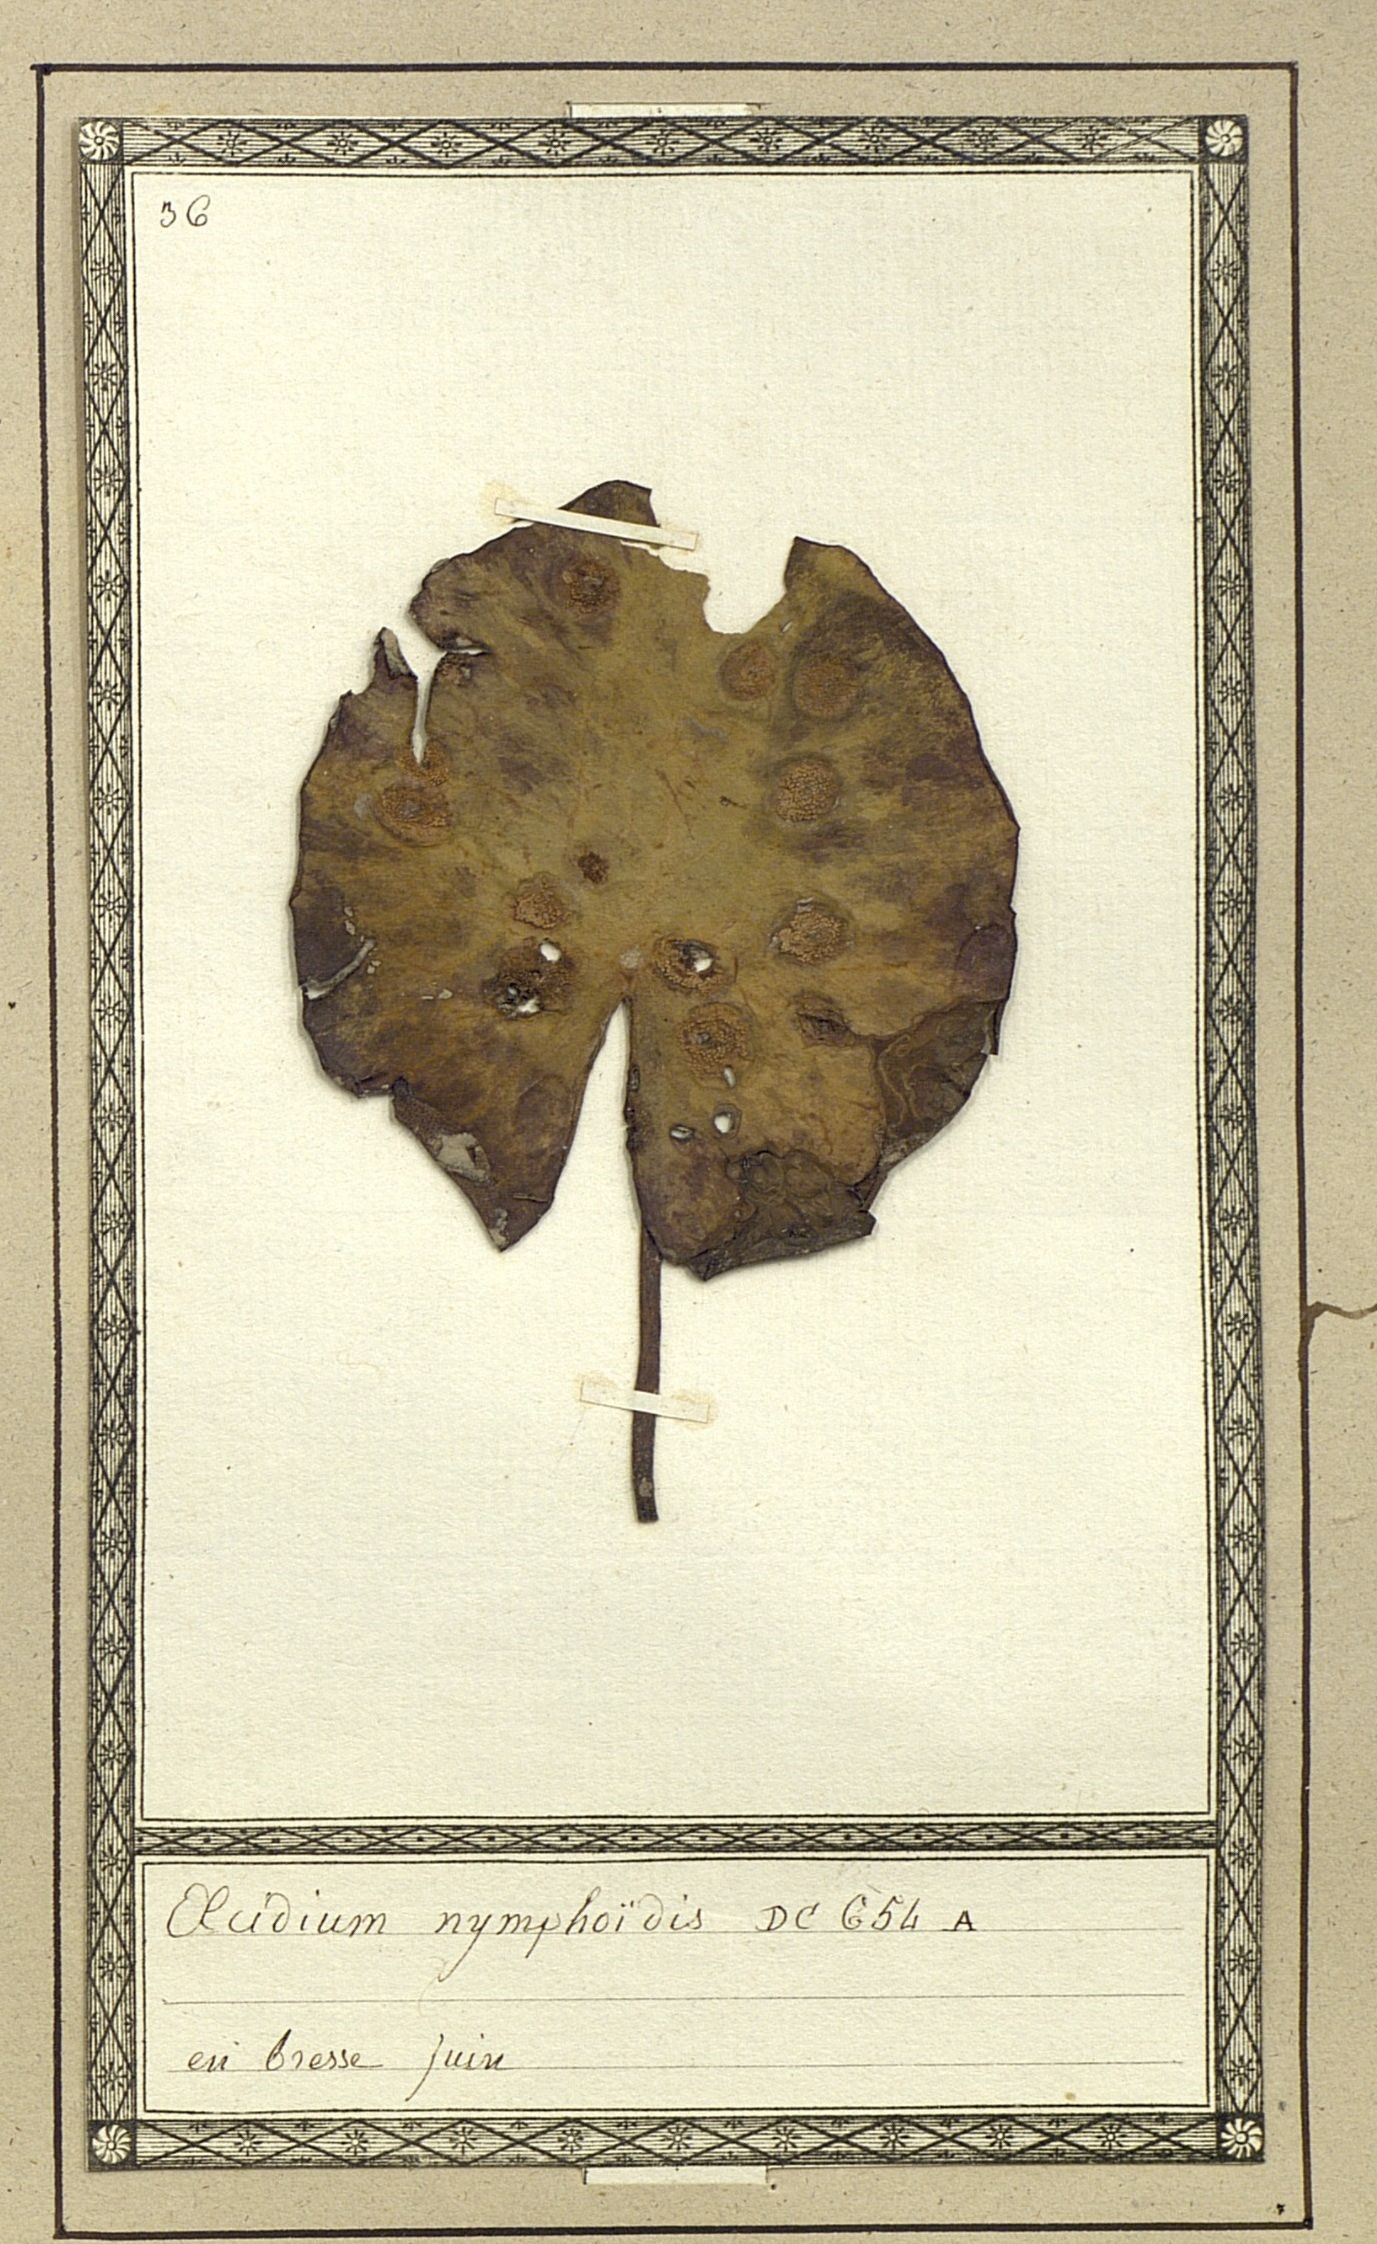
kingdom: Fungi
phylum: Basidiomycota
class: Pucciniomycetes
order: Pucciniales
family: Pucciniaceae
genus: Puccinia
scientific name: Puccinia scirpi
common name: Common club rush rust
